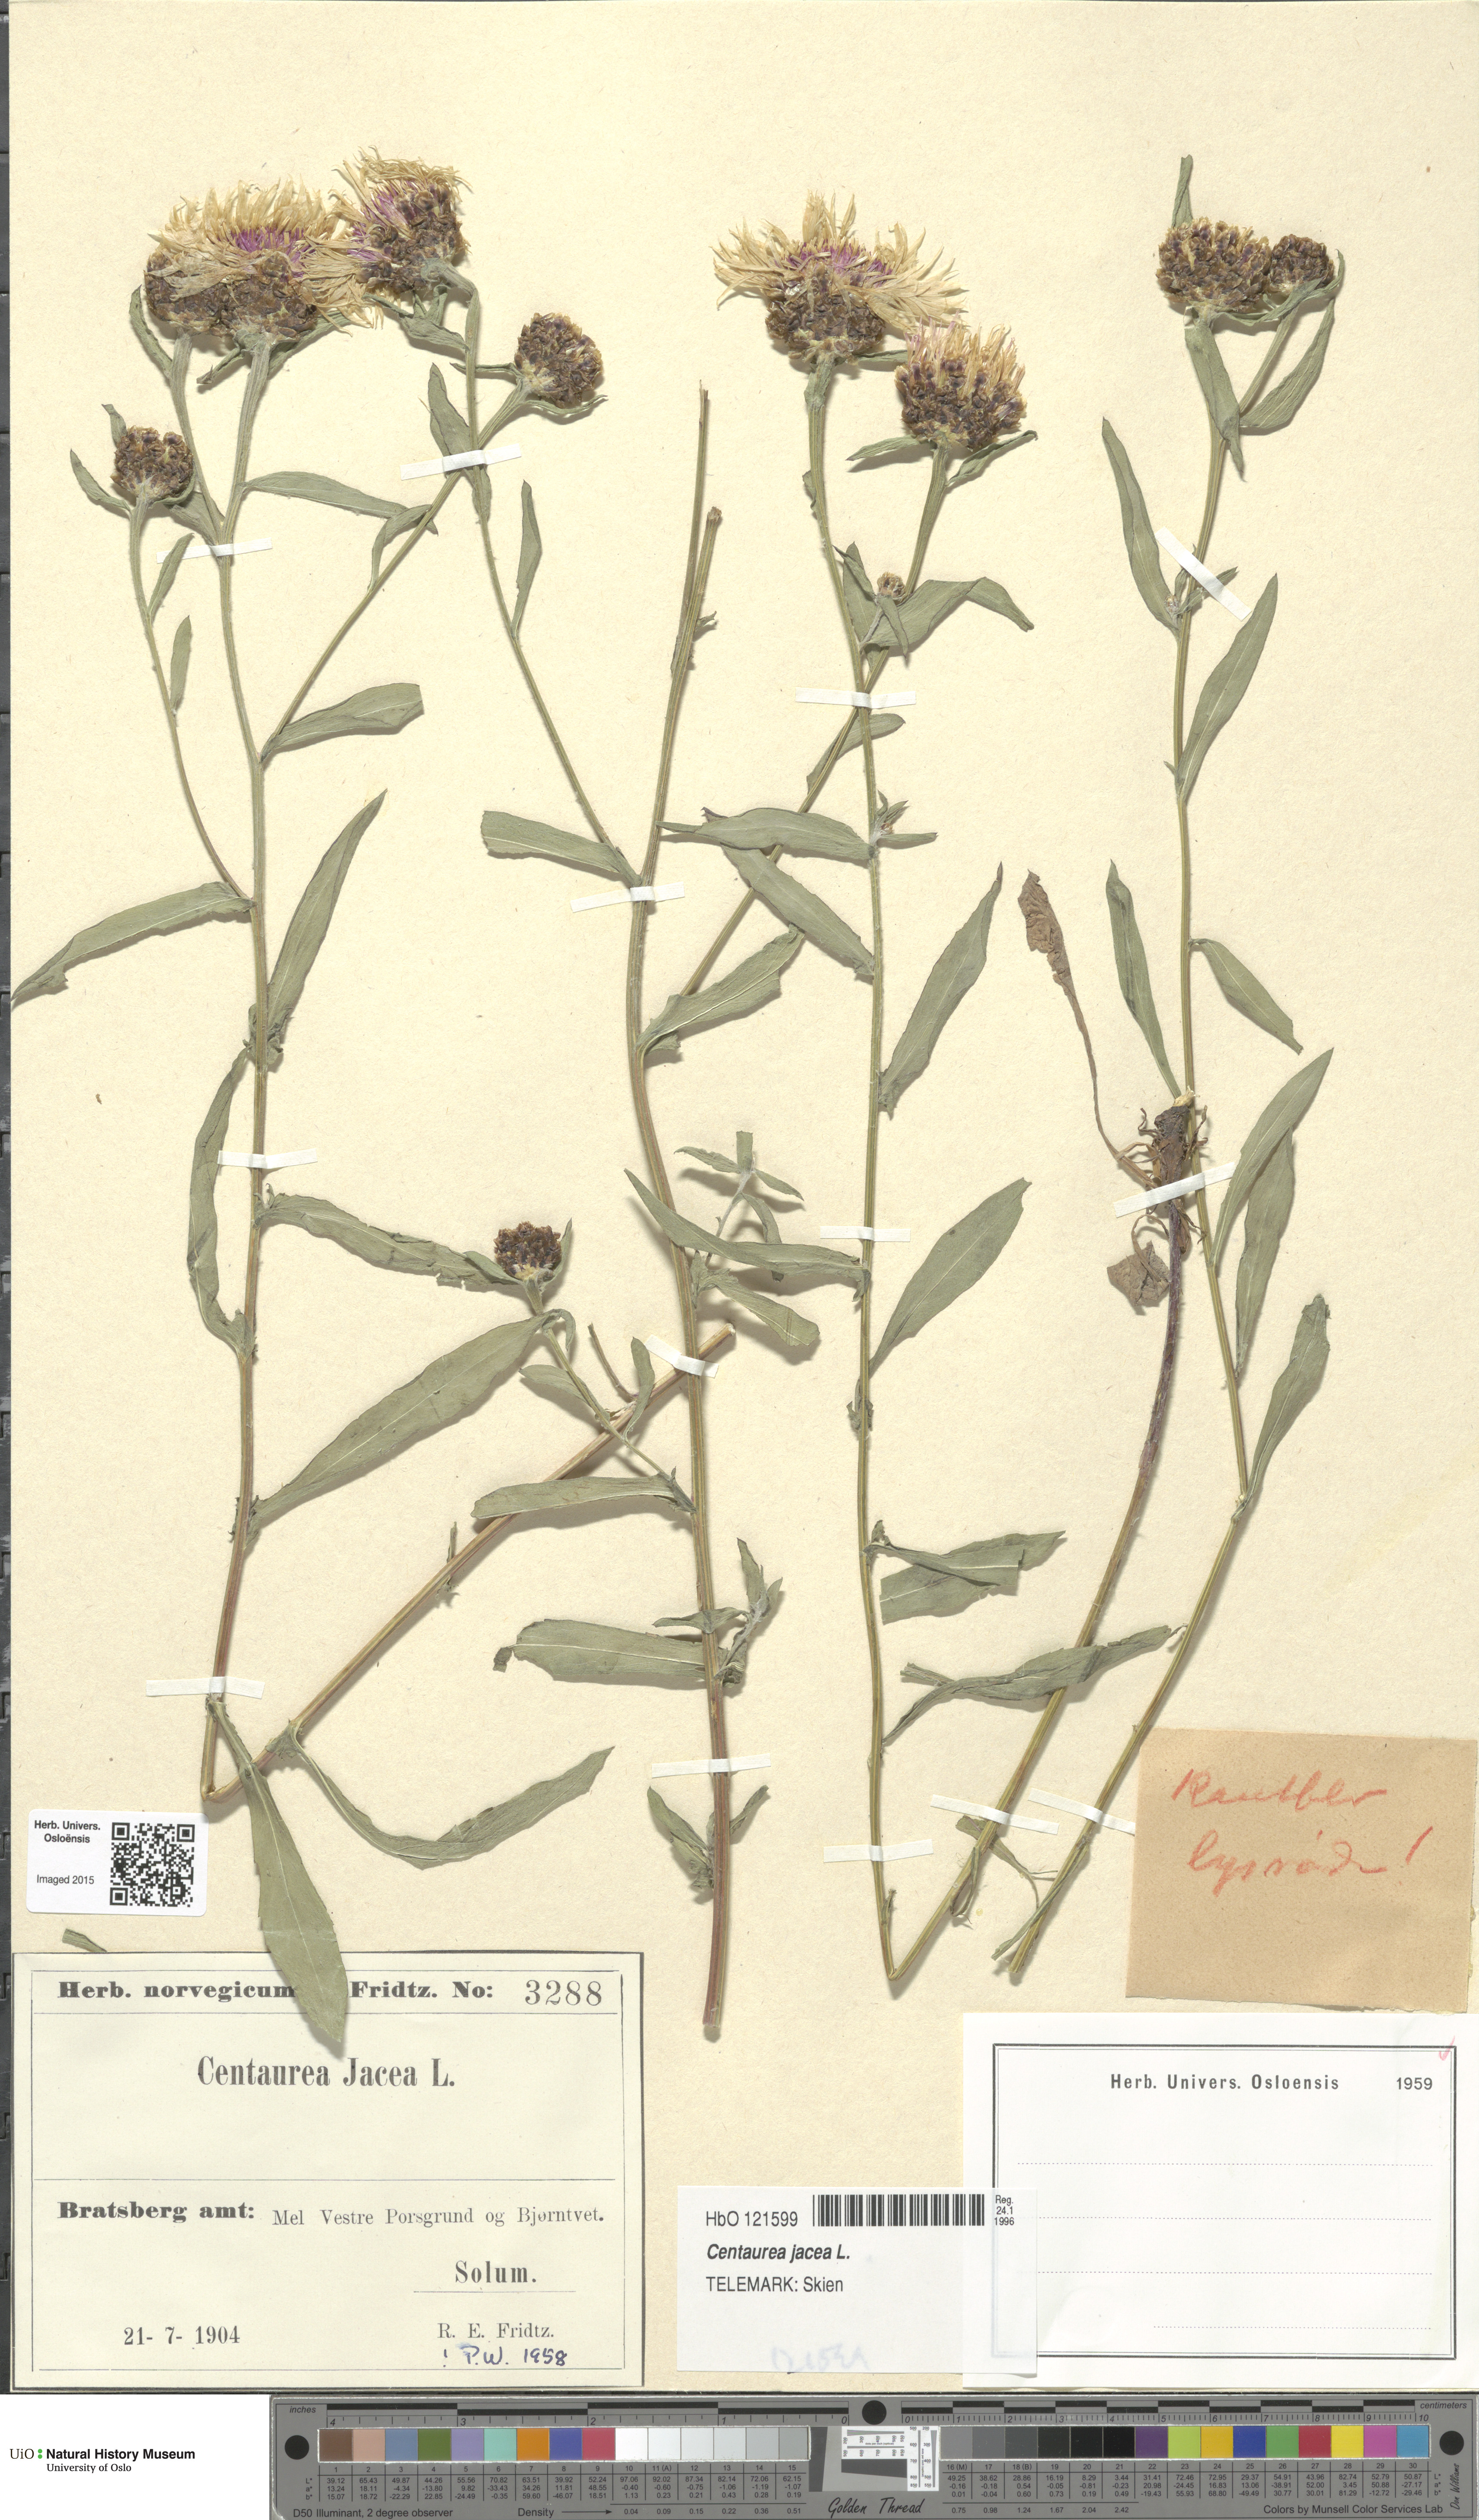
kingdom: Plantae
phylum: Tracheophyta
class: Magnoliopsida
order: Asterales
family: Asteraceae
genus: Centaurea
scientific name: Centaurea jacea
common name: Brown knapweed
